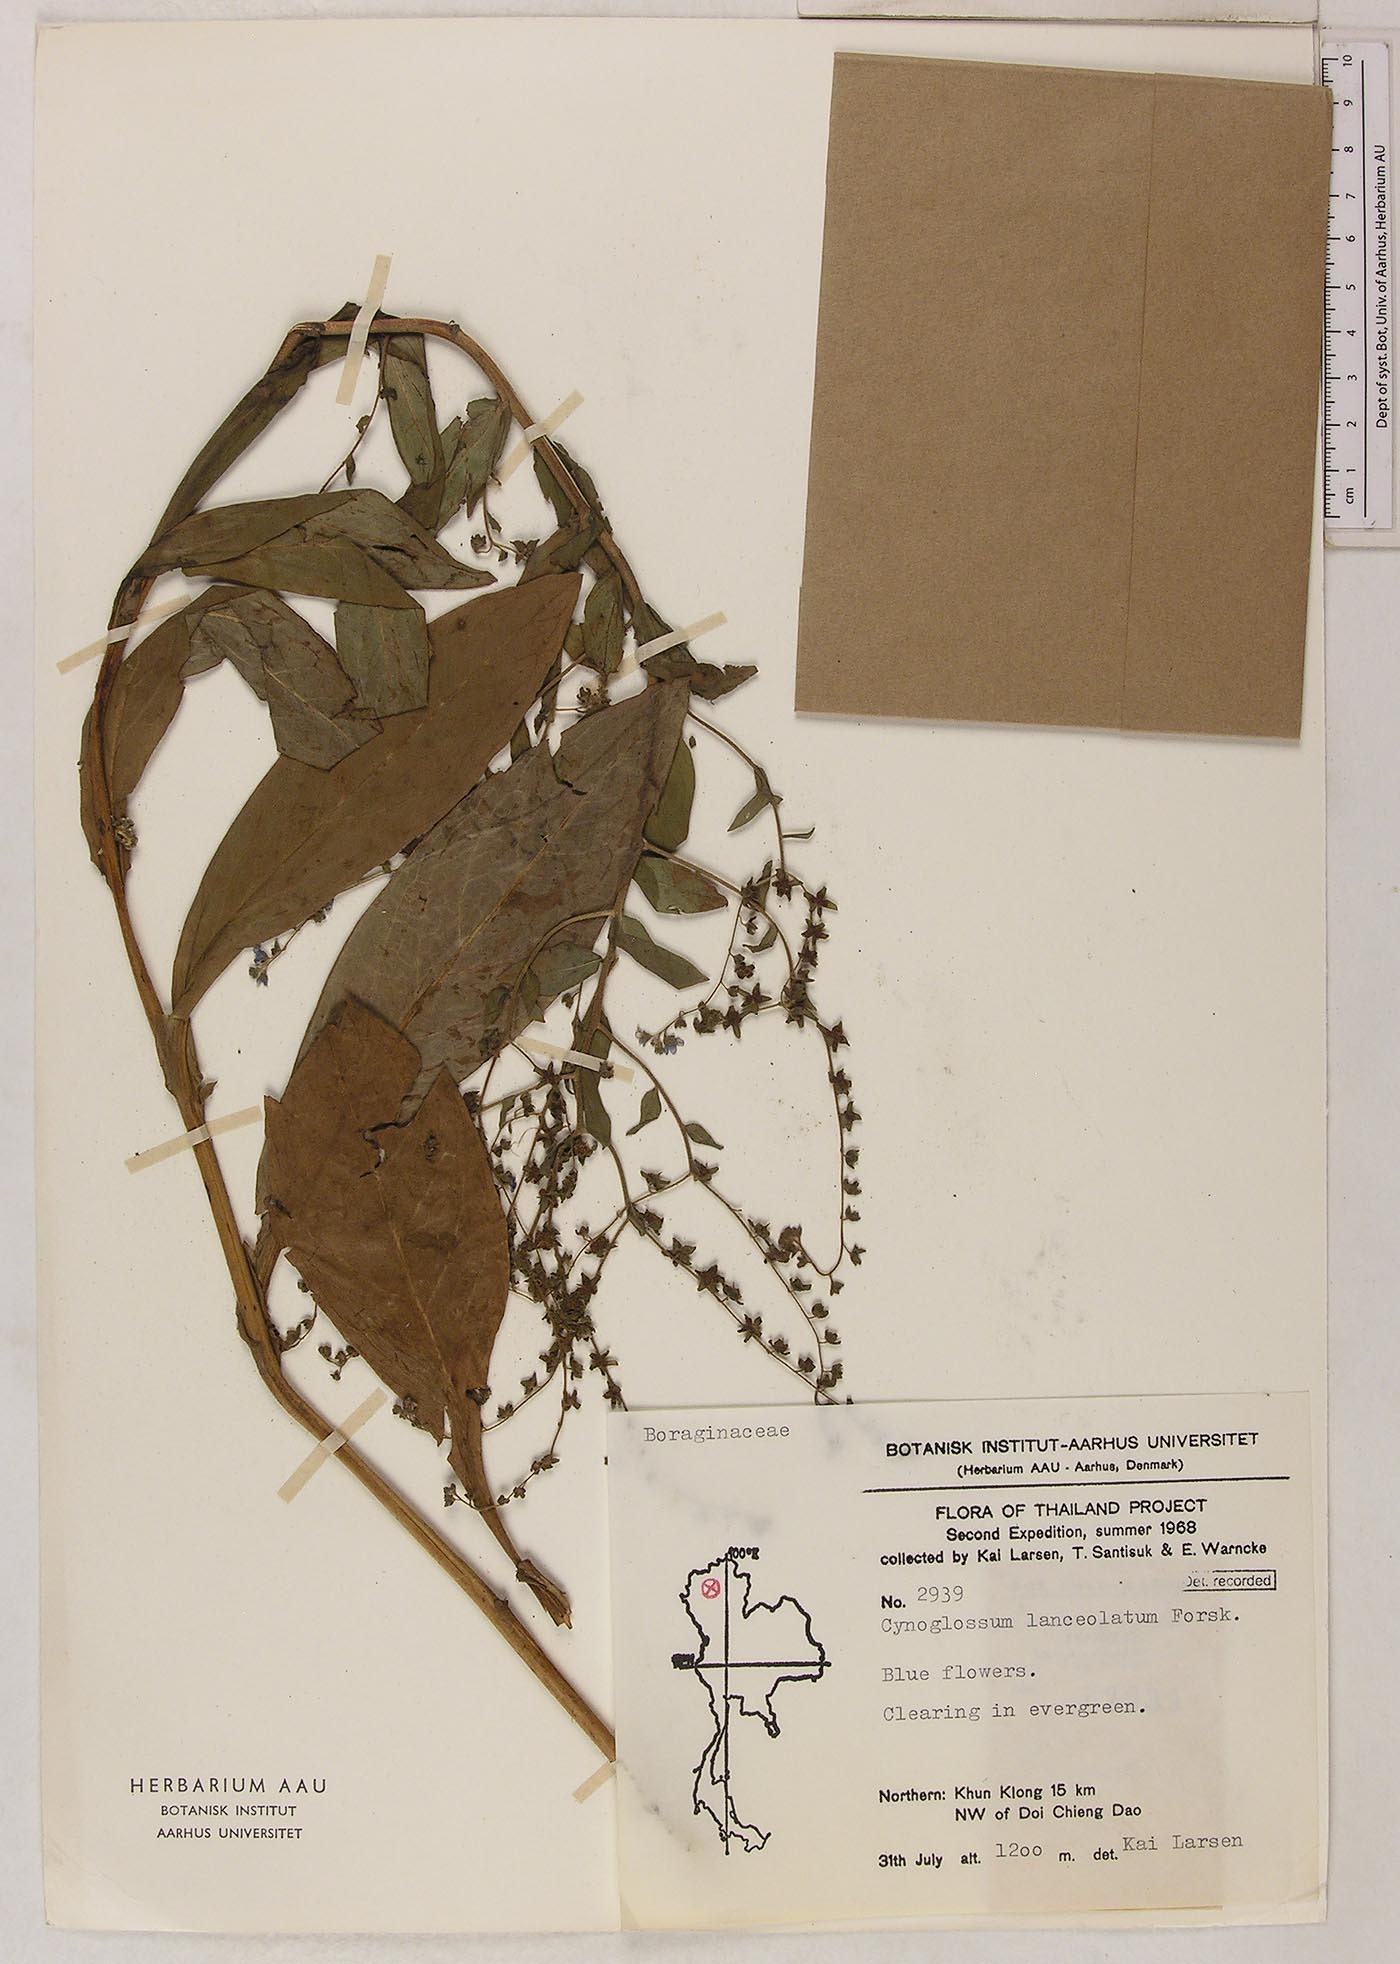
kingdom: Plantae
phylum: Tracheophyta
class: Magnoliopsida
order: Boraginales
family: Boraginaceae
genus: Rochelia
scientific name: Rochelia zeylanica
